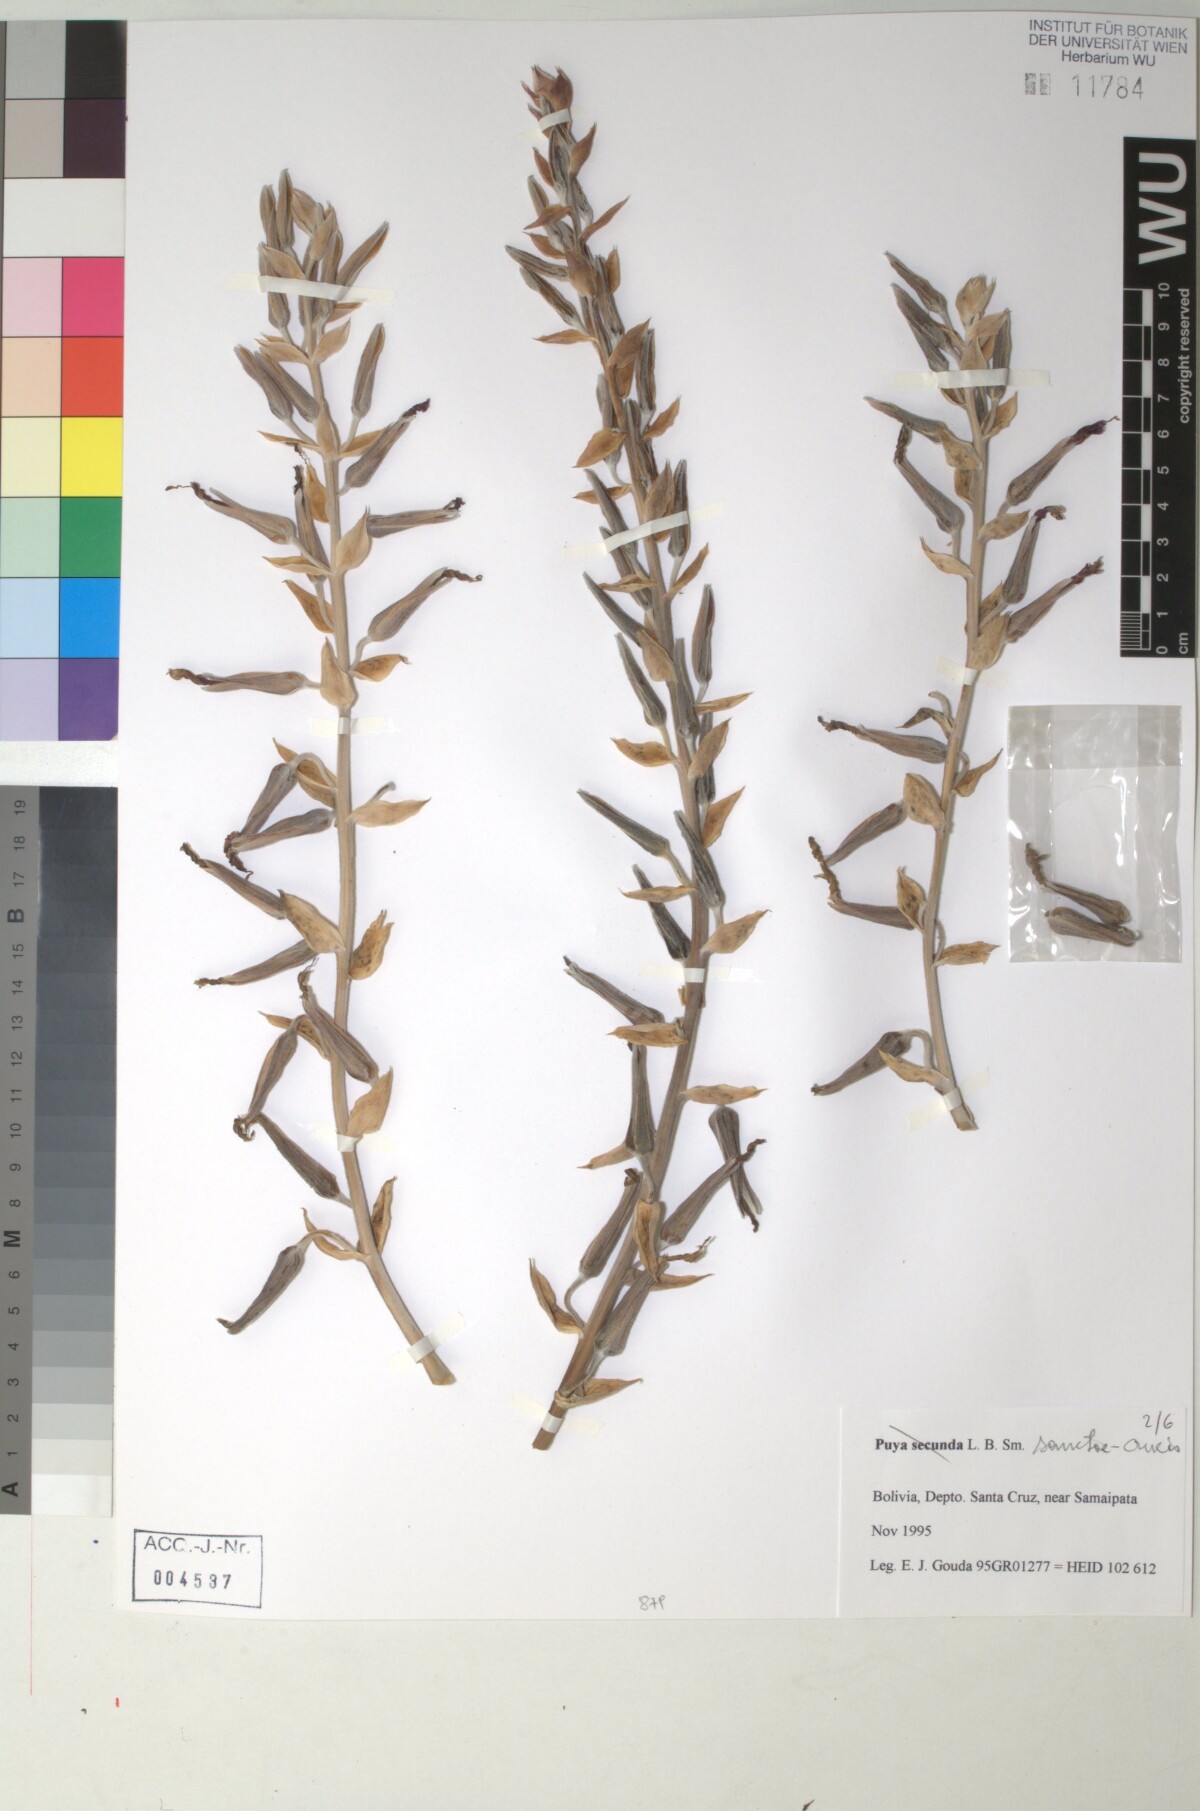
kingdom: Plantae
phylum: Tracheophyta
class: Liliopsida
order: Poales
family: Bromeliaceae
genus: Puya
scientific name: Puya secunda
